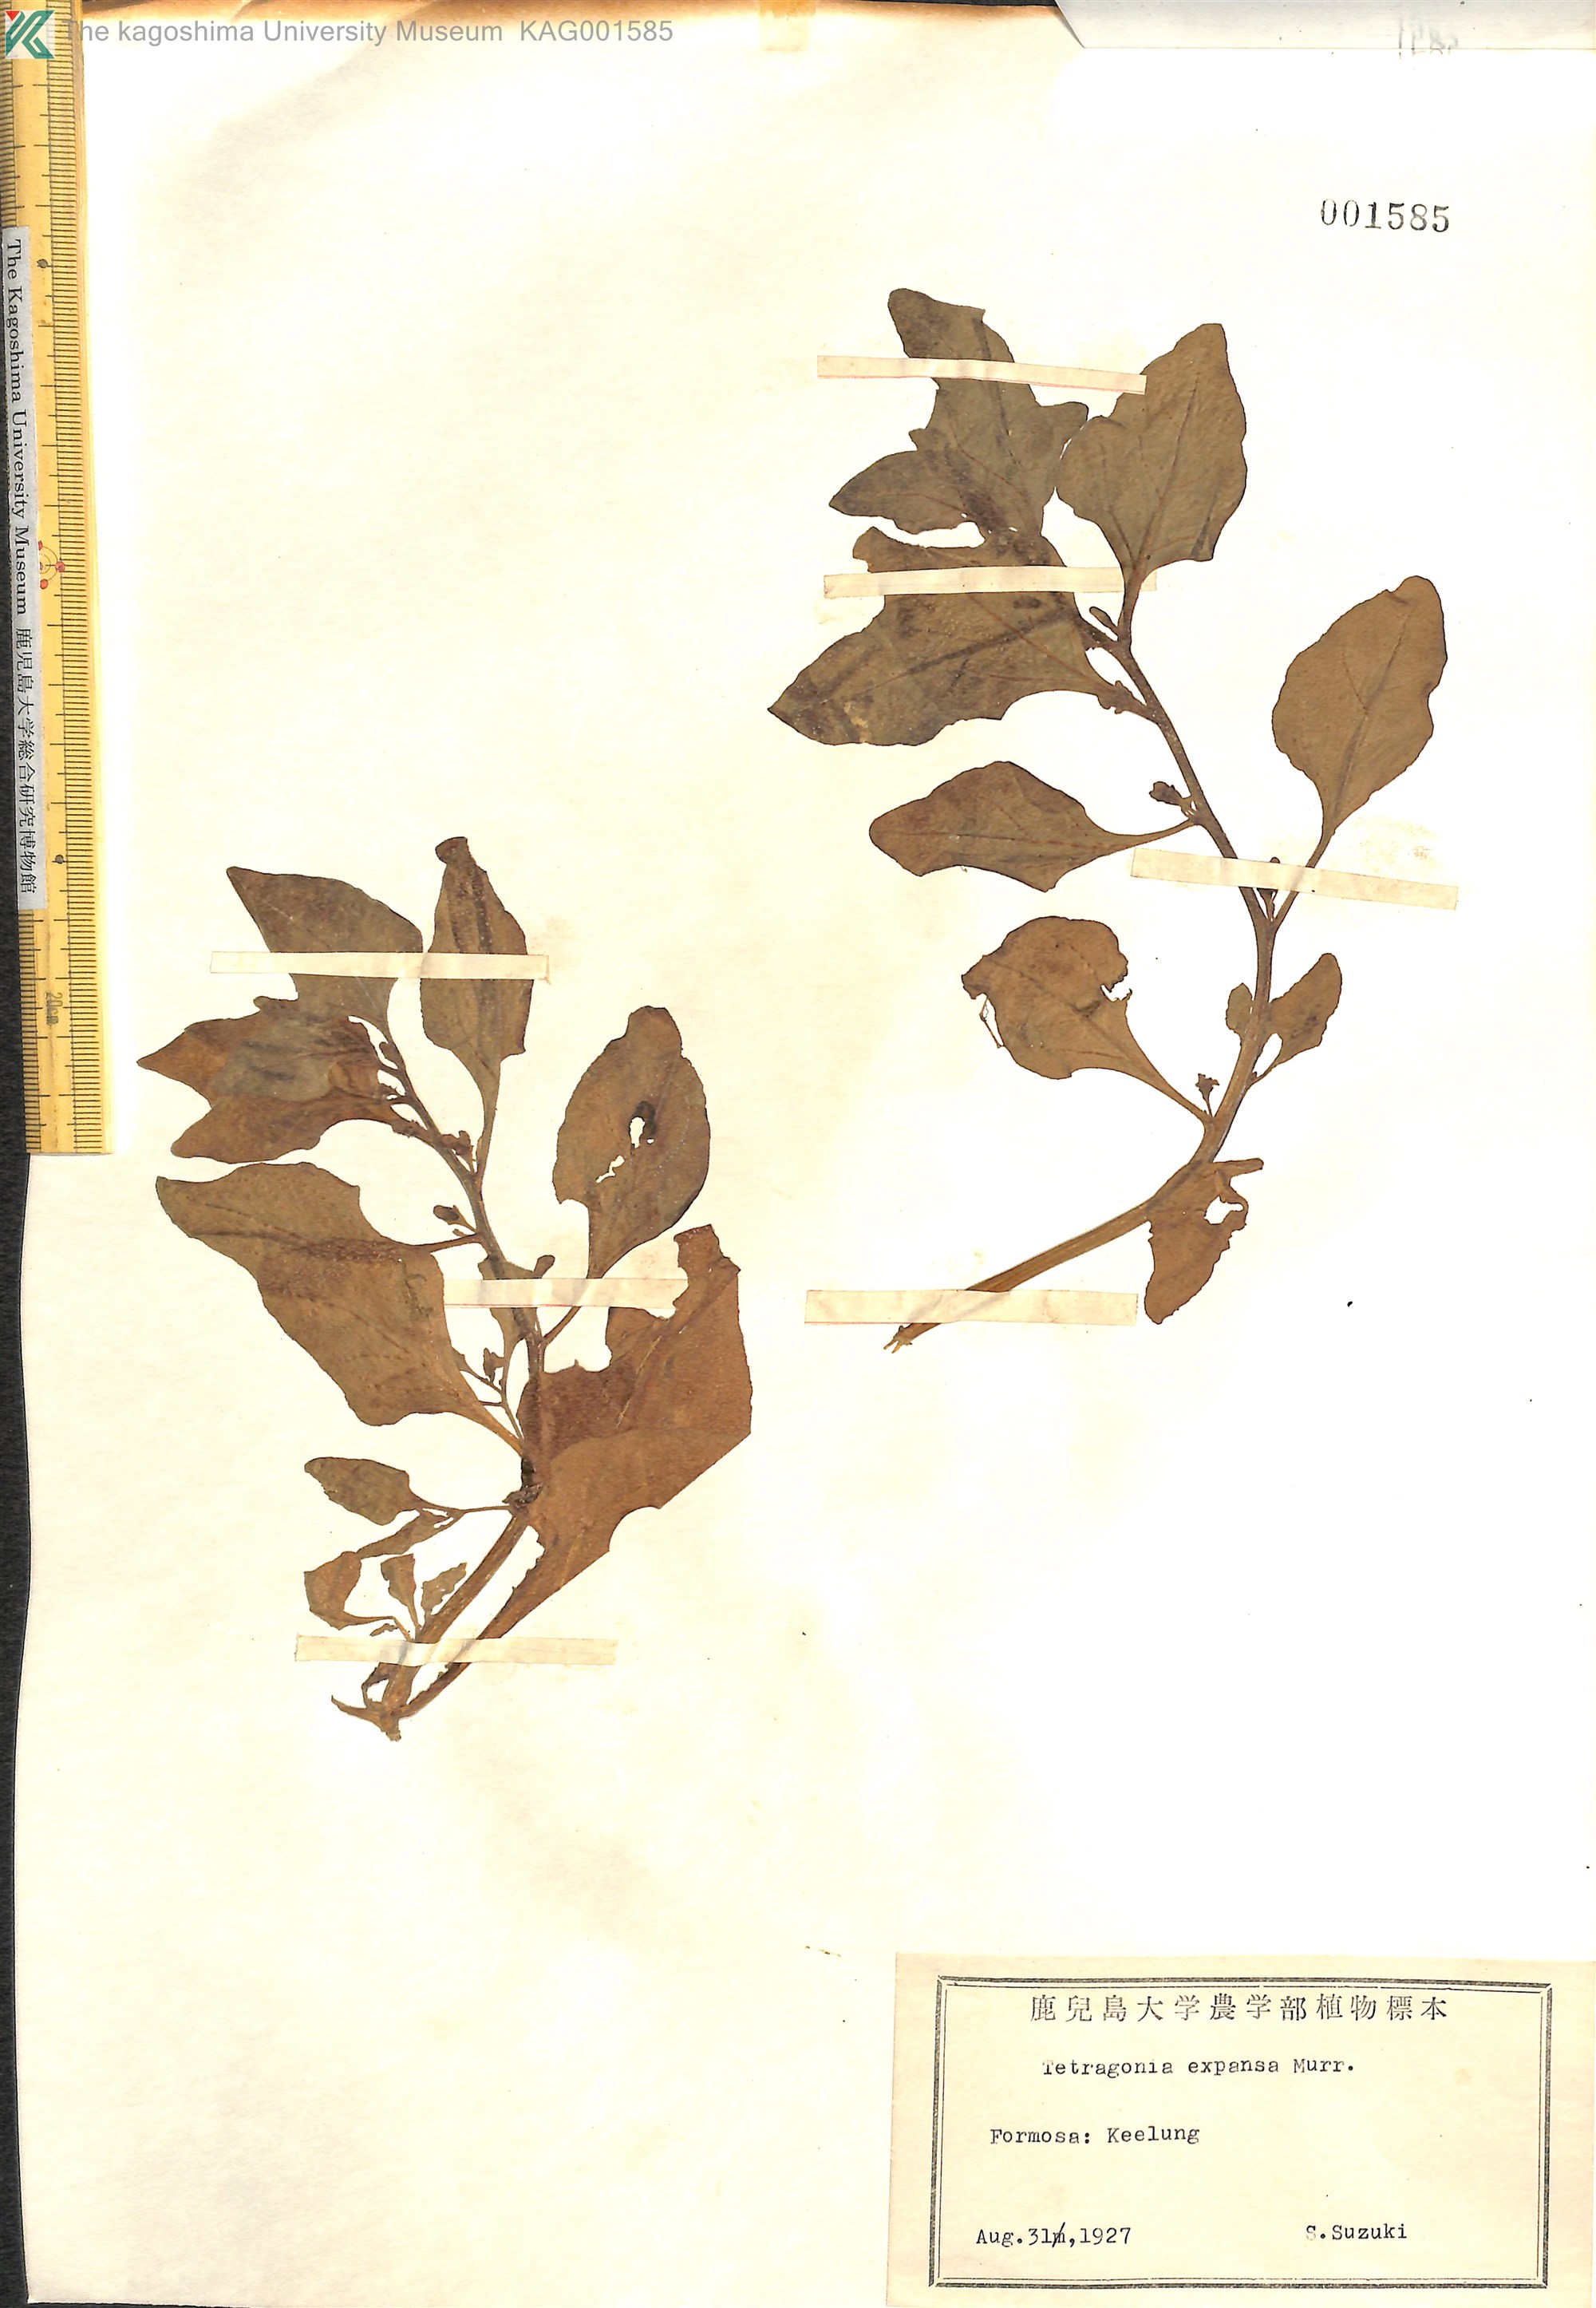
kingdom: Plantae
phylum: Tracheophyta
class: Magnoliopsida
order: Caryophyllales
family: Aizoaceae
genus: Tetragonia
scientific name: Tetragonia tetragonoides
